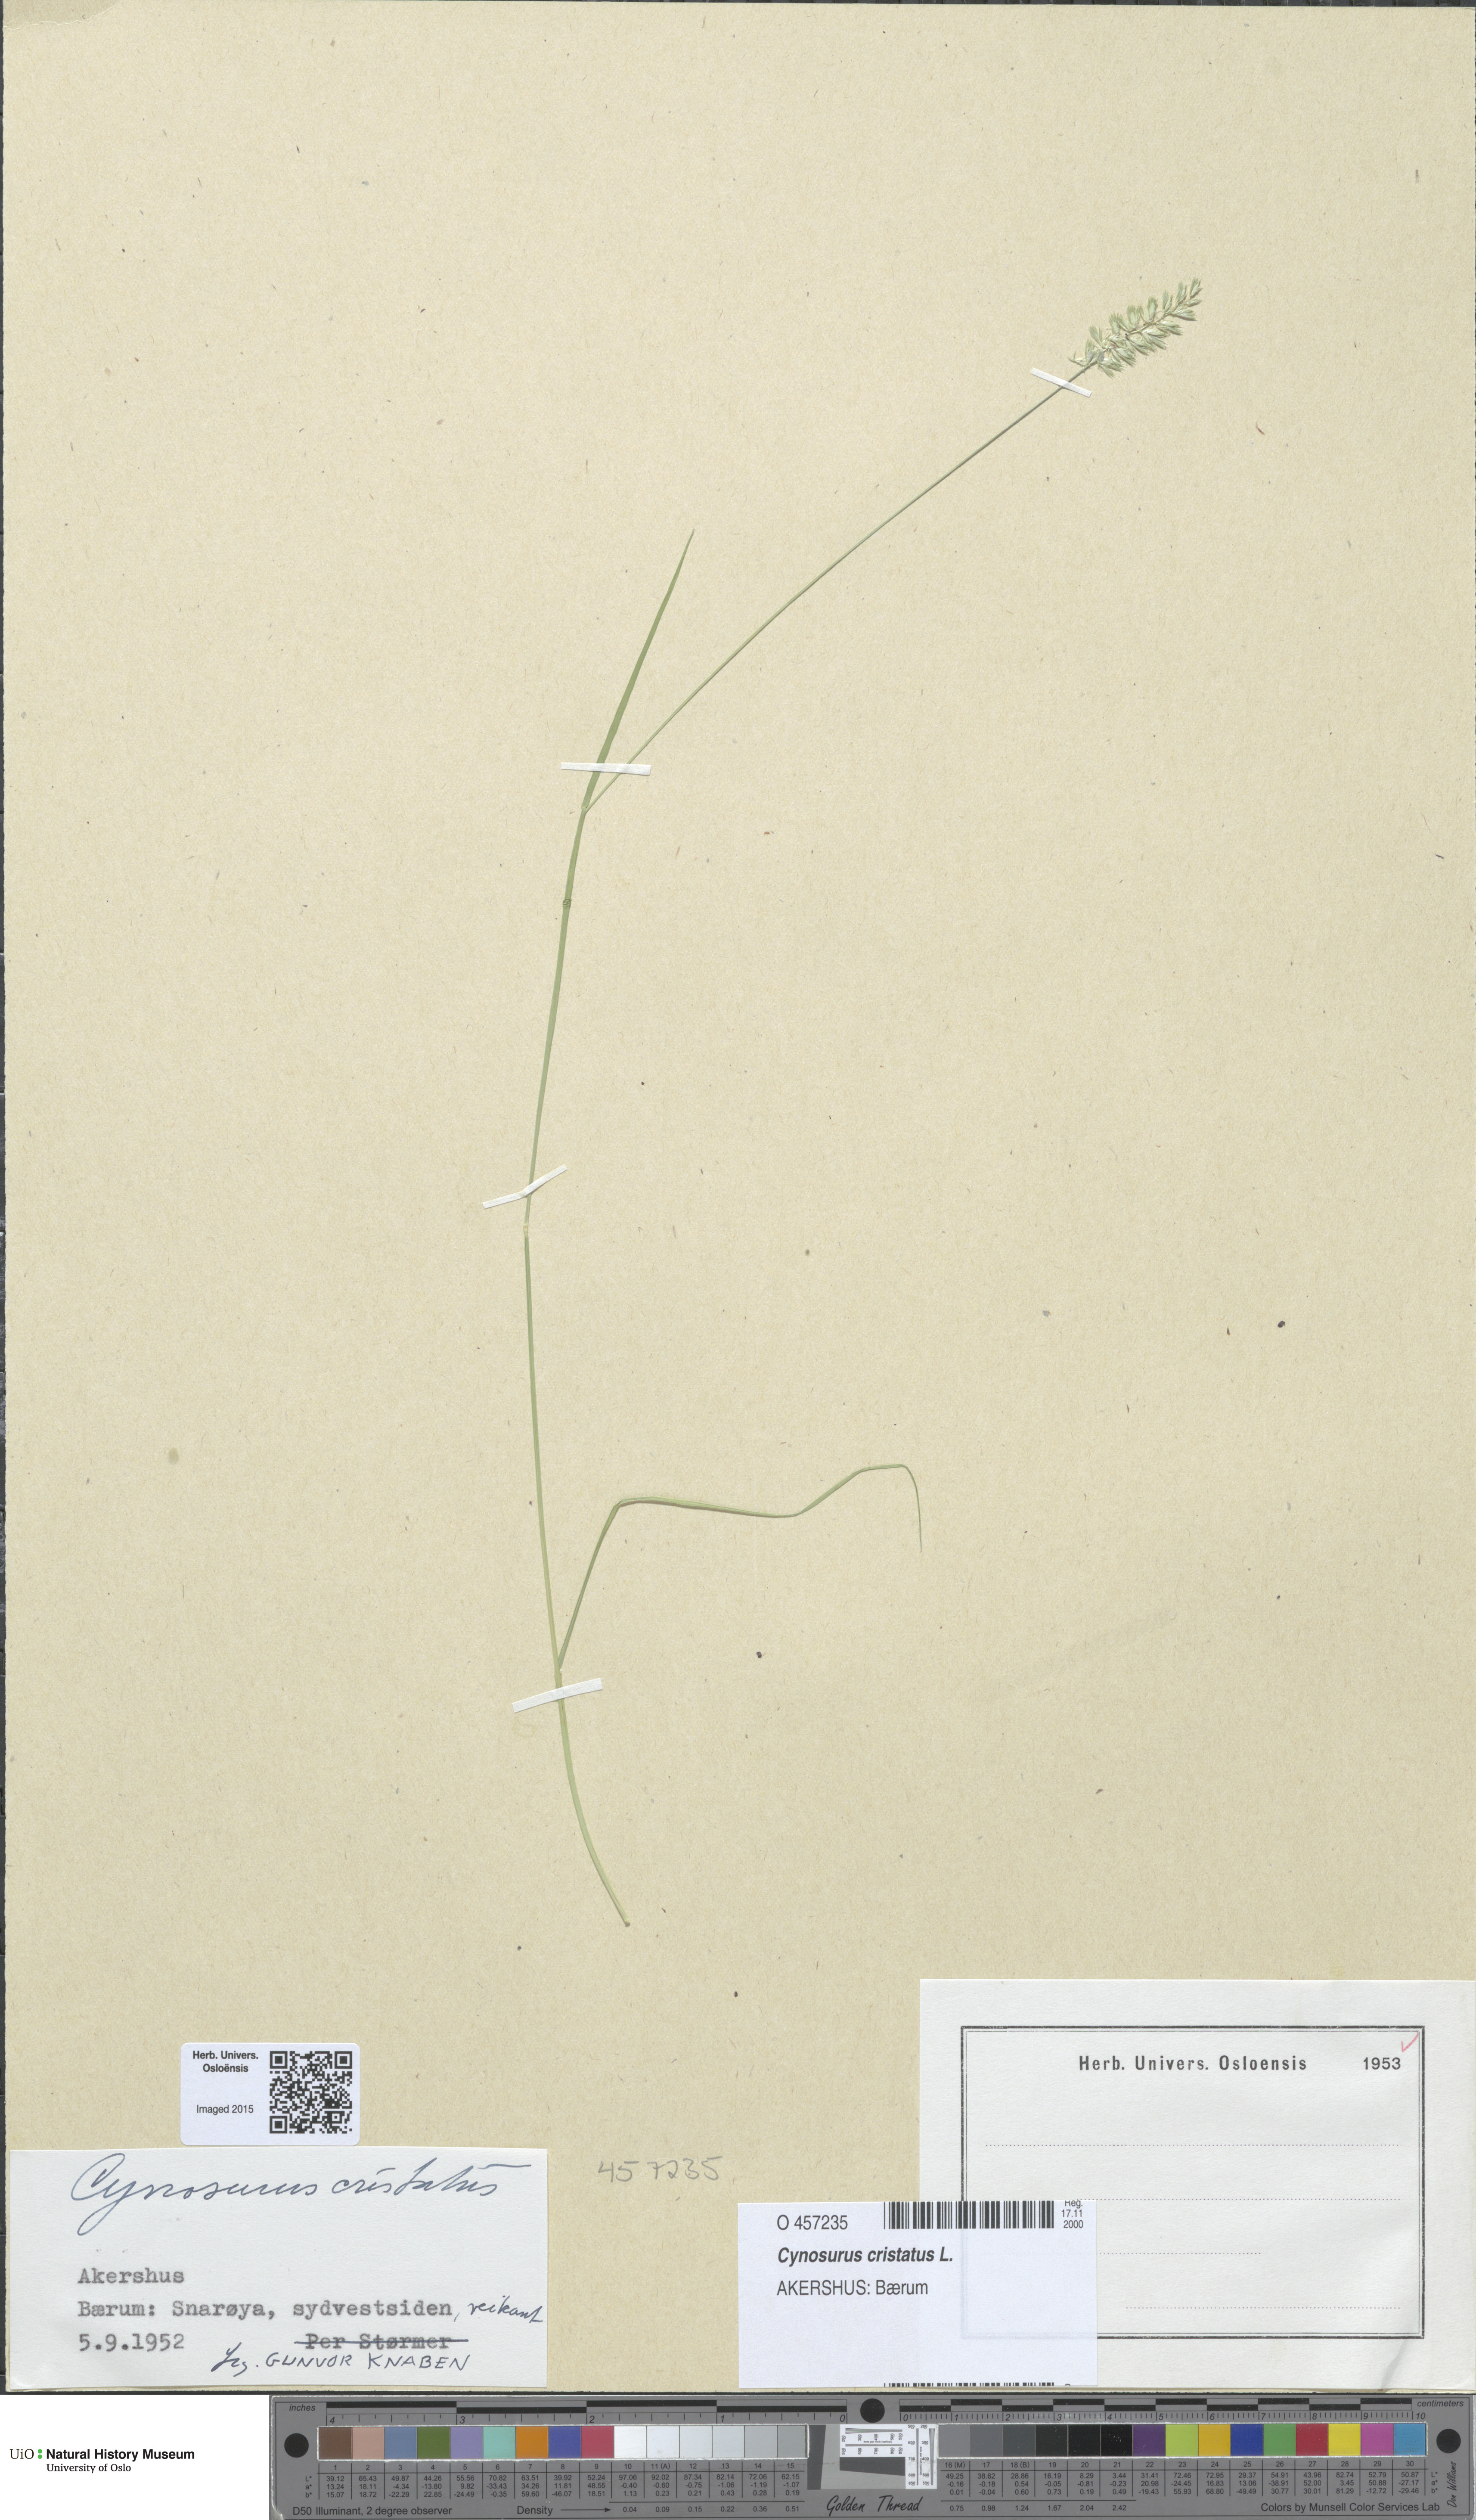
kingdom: Plantae
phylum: Tracheophyta
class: Liliopsida
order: Poales
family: Poaceae
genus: Cynosurus
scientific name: Cynosurus cristatus
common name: Crested dog's-tail
